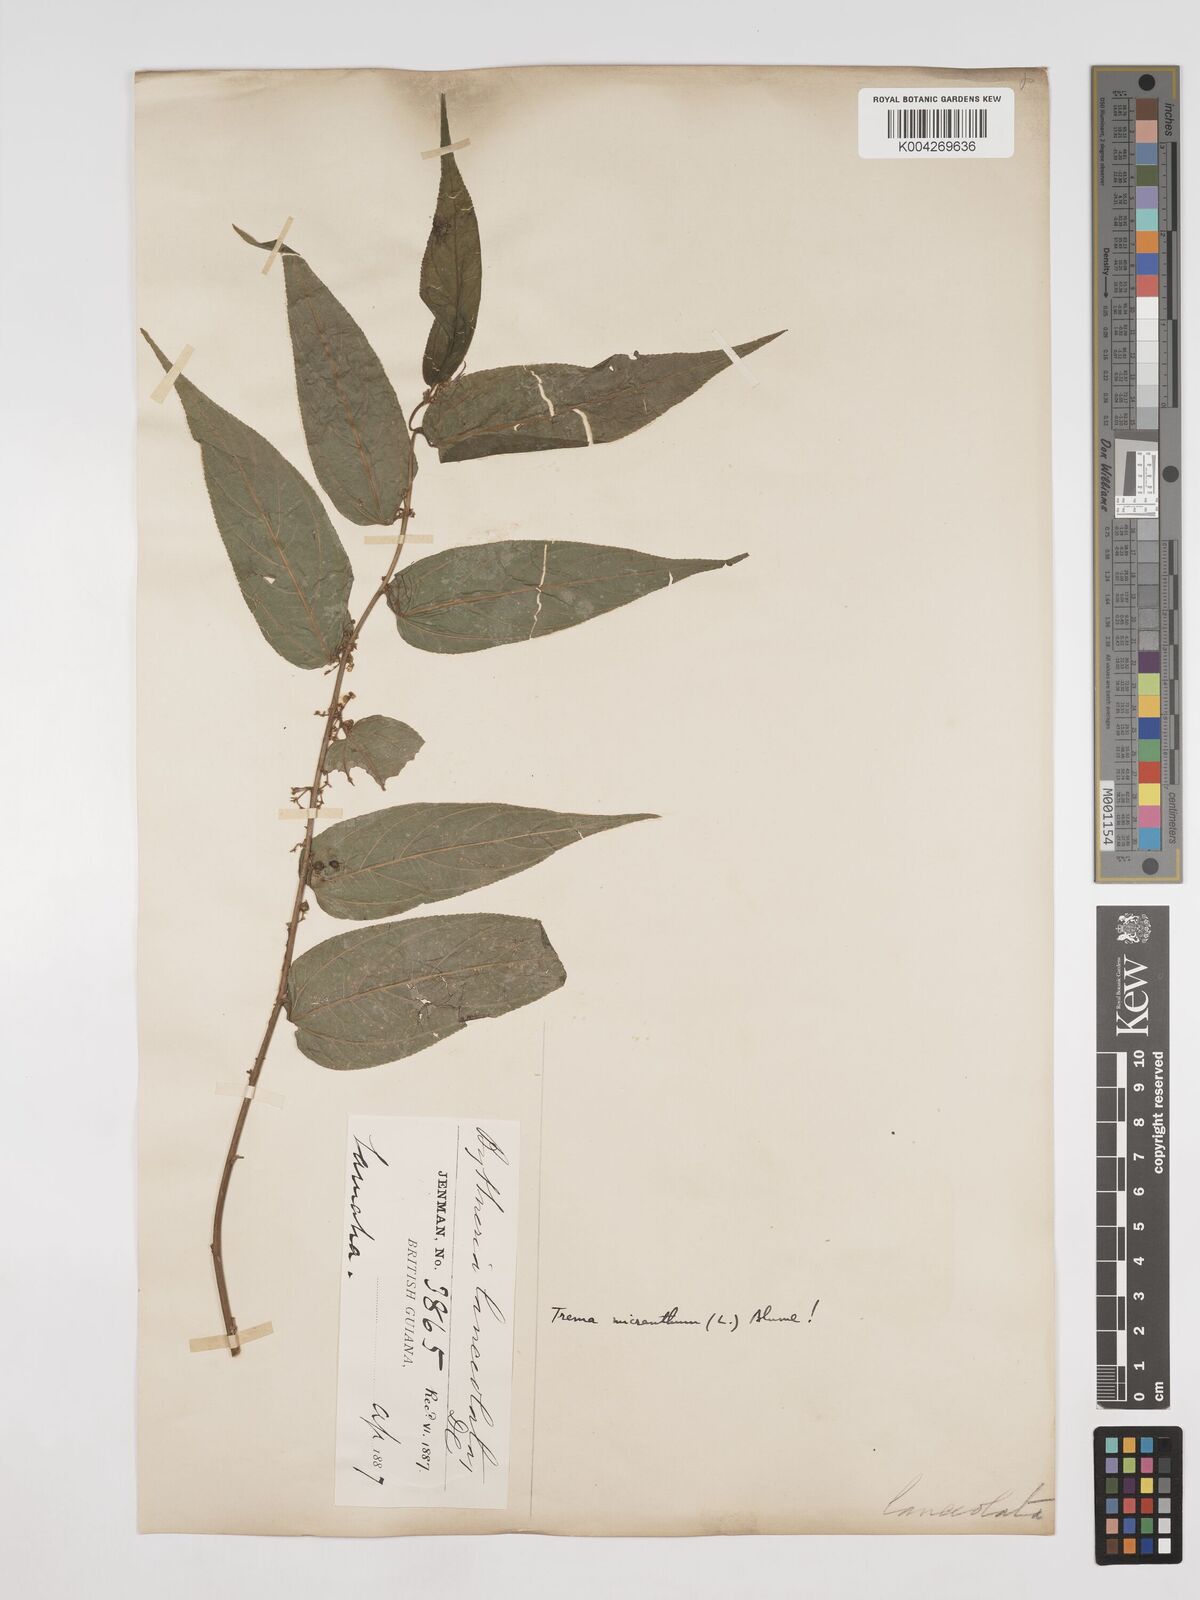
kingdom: Plantae
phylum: Tracheophyta
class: Magnoliopsida
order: Rosales
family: Cannabaceae
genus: Trema
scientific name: Trema micranthum
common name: Jamaican nettletree
